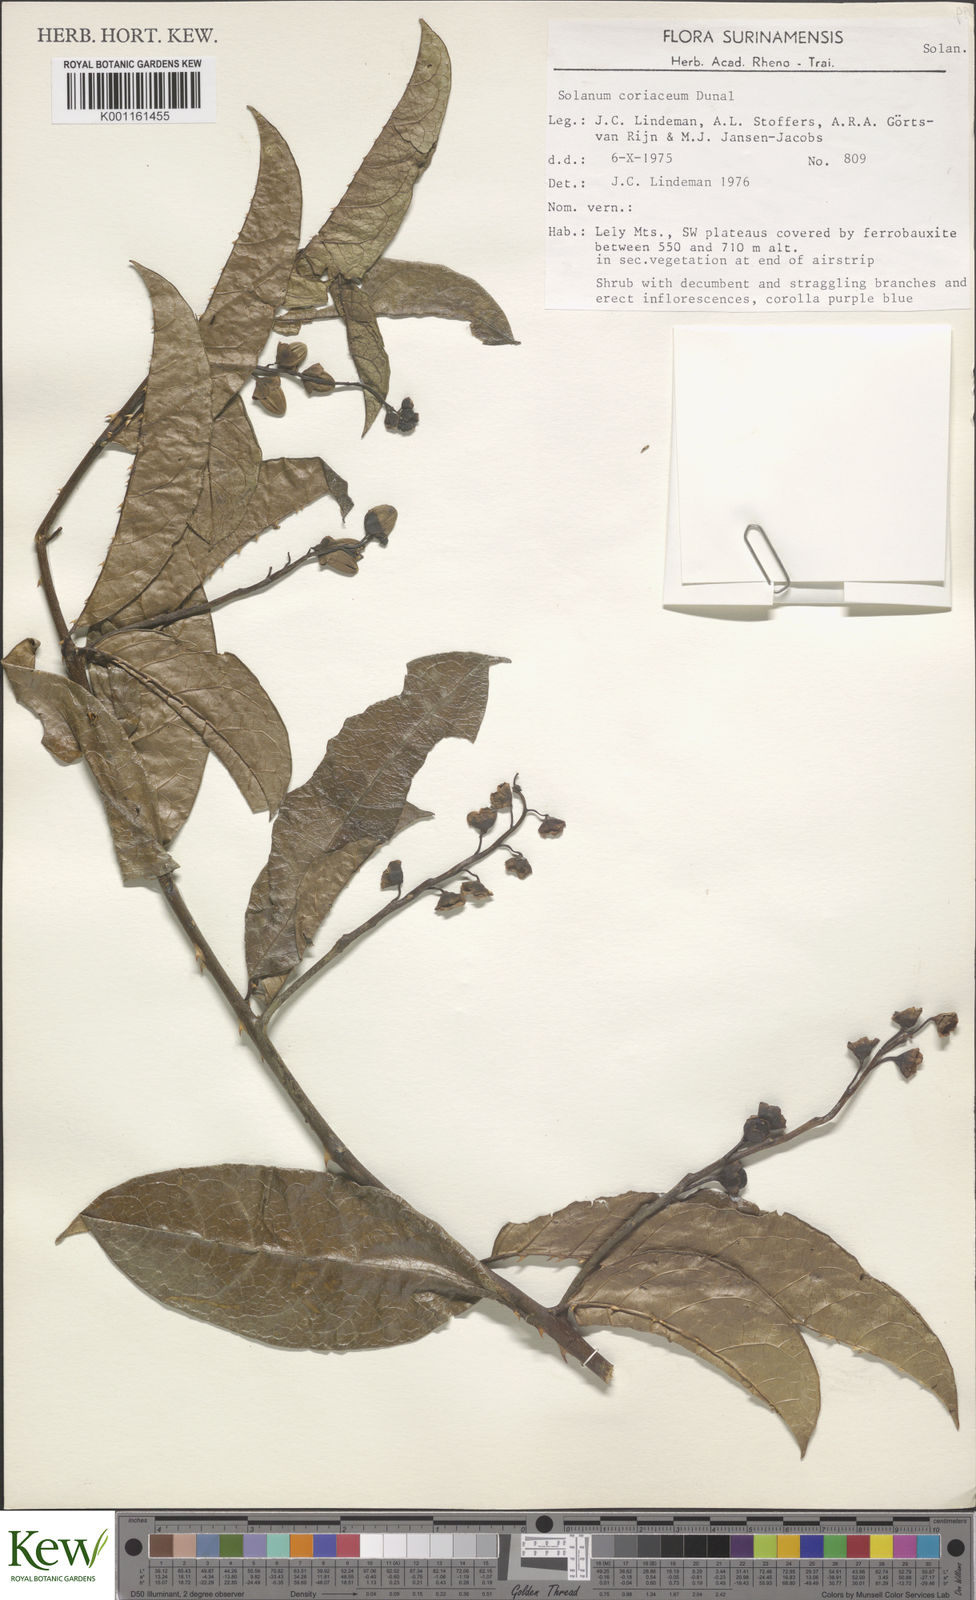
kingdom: Plantae
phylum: Tracheophyta
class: Magnoliopsida
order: Solanales
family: Solanaceae
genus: Solanum
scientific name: Solanum coriaceum
